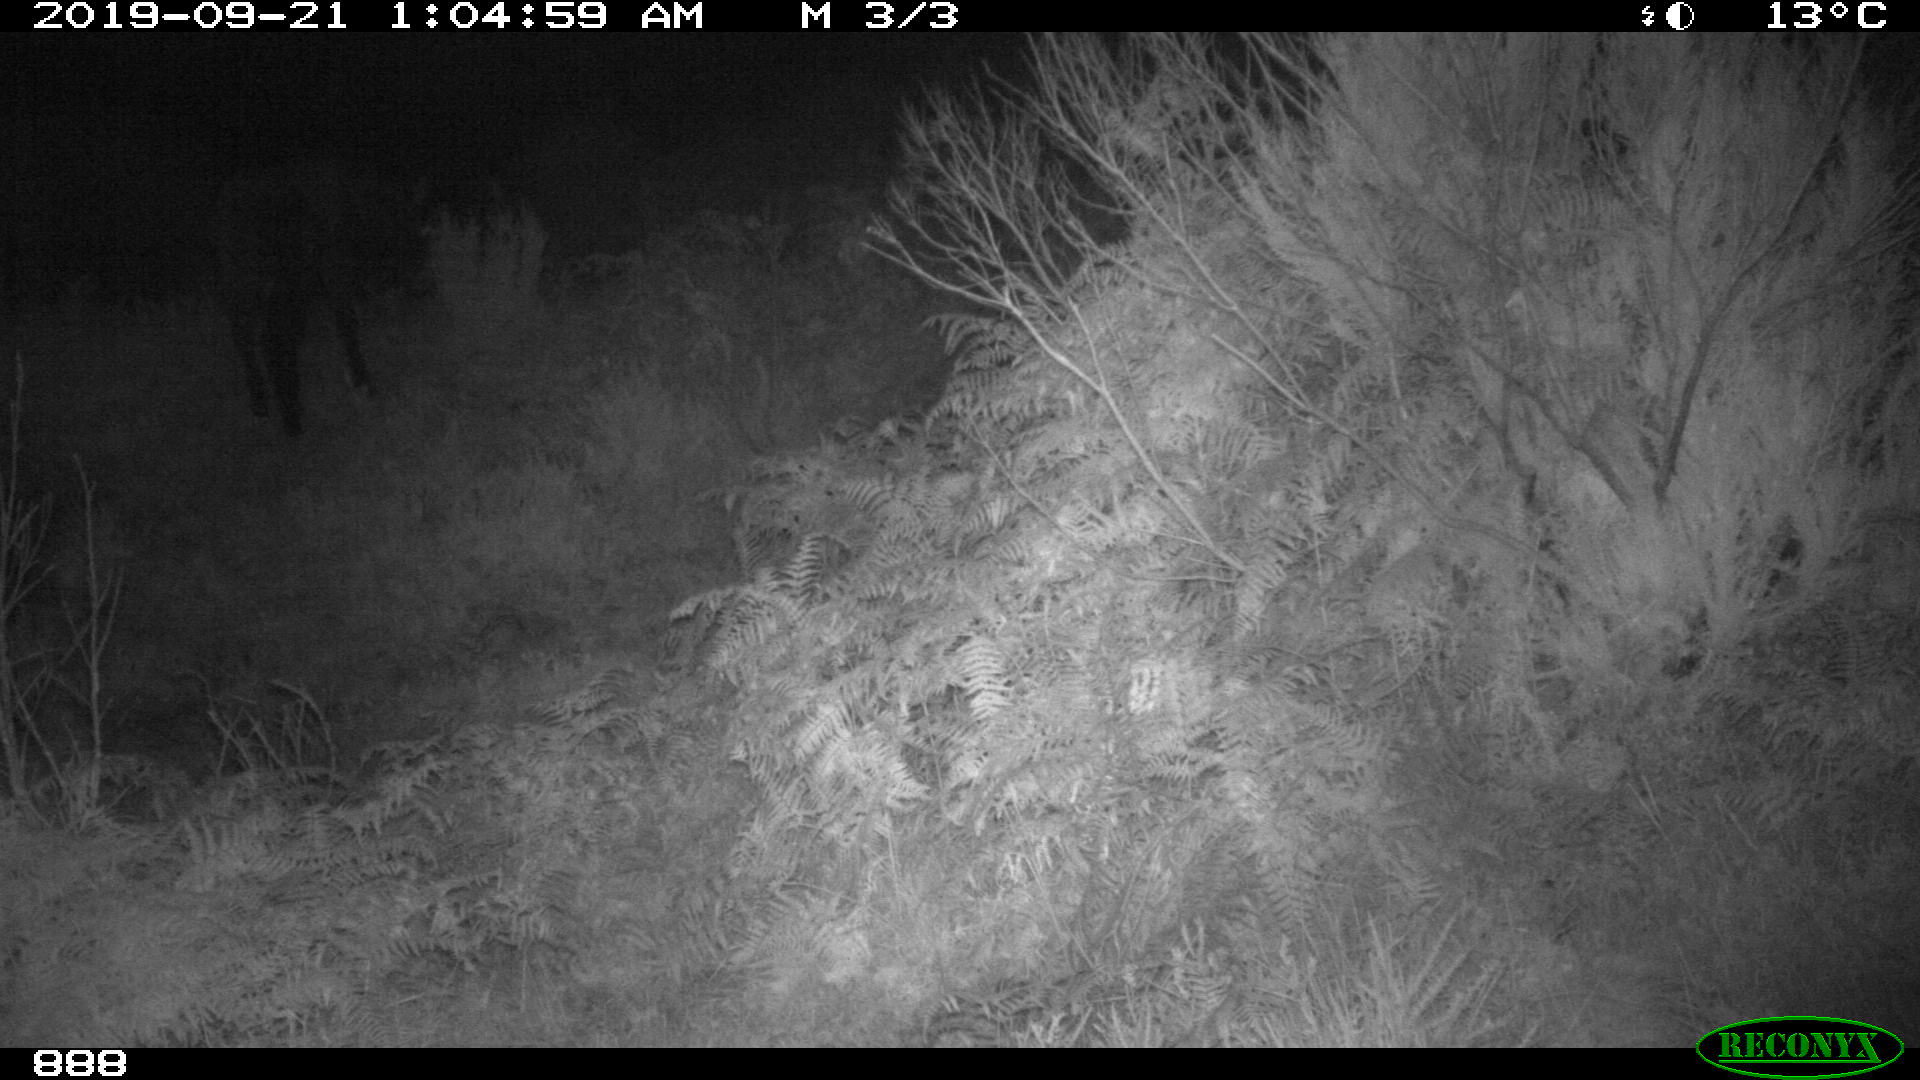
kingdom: Animalia
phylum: Chordata
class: Mammalia
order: Perissodactyla
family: Equidae
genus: Equus
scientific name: Equus caballus
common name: Horse
